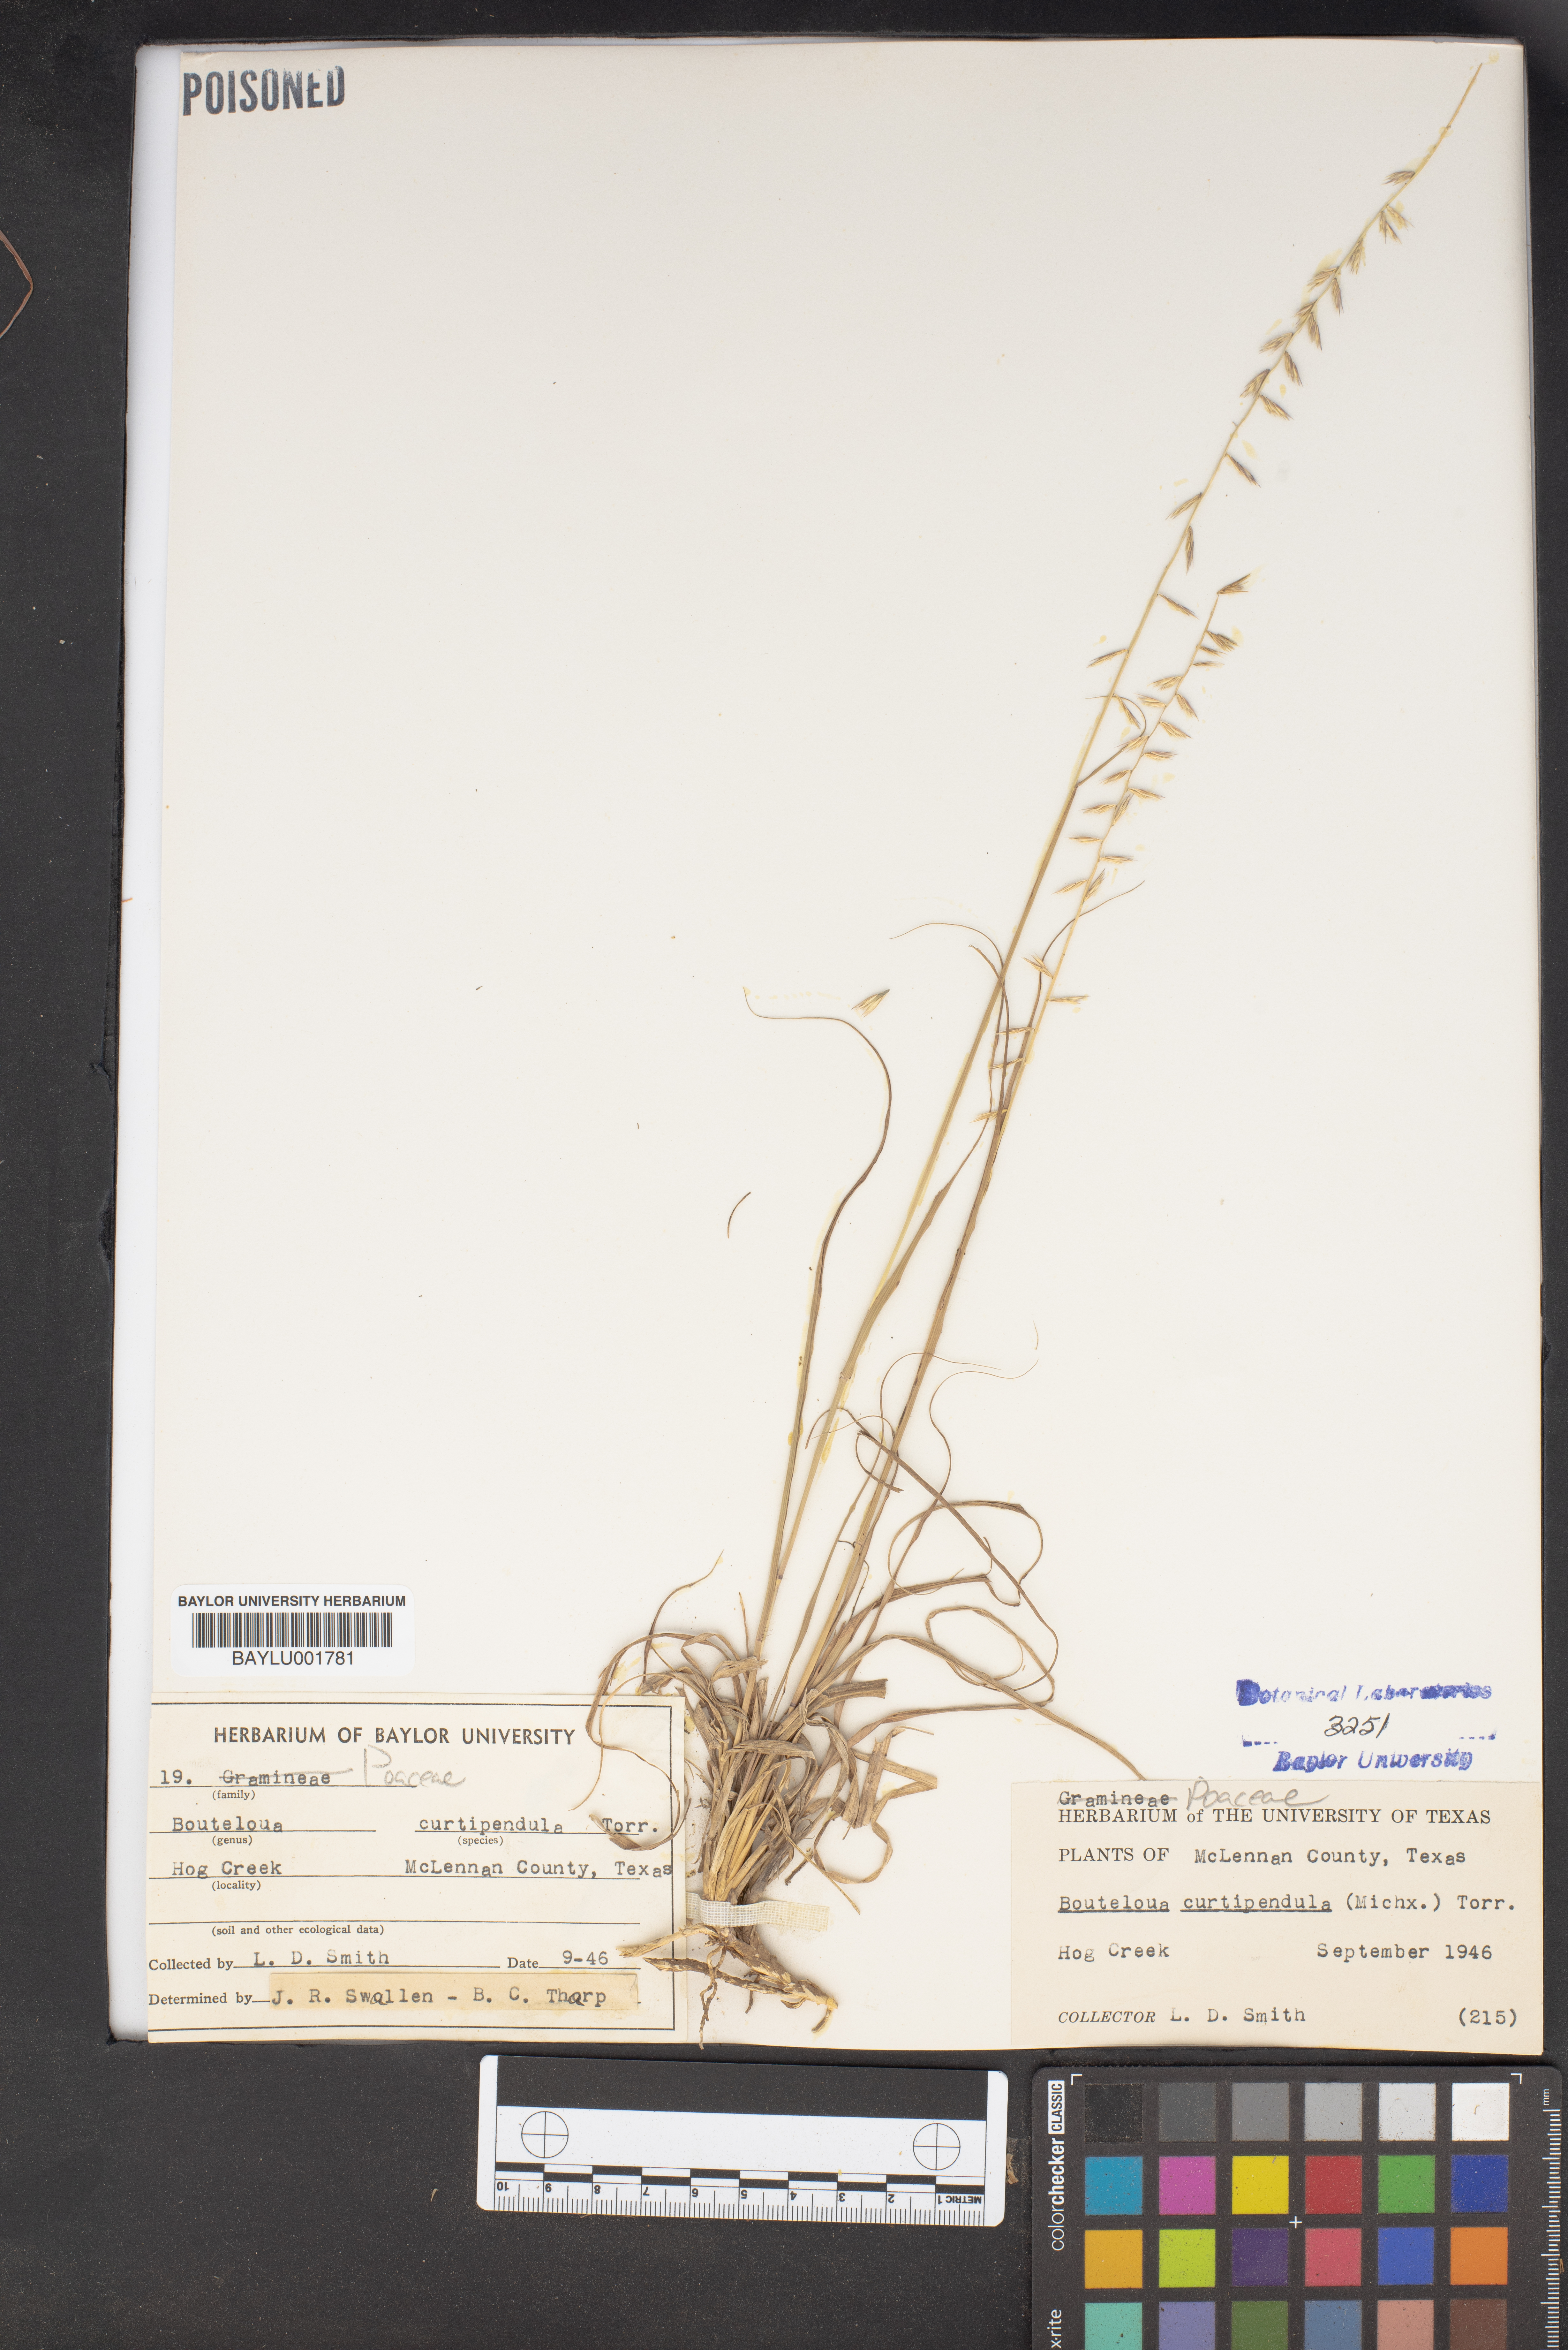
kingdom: Plantae
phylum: Tracheophyta
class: Liliopsida
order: Poales
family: Poaceae
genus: Bouteloua
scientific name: Bouteloua curtipendula
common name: Side-oats grama
